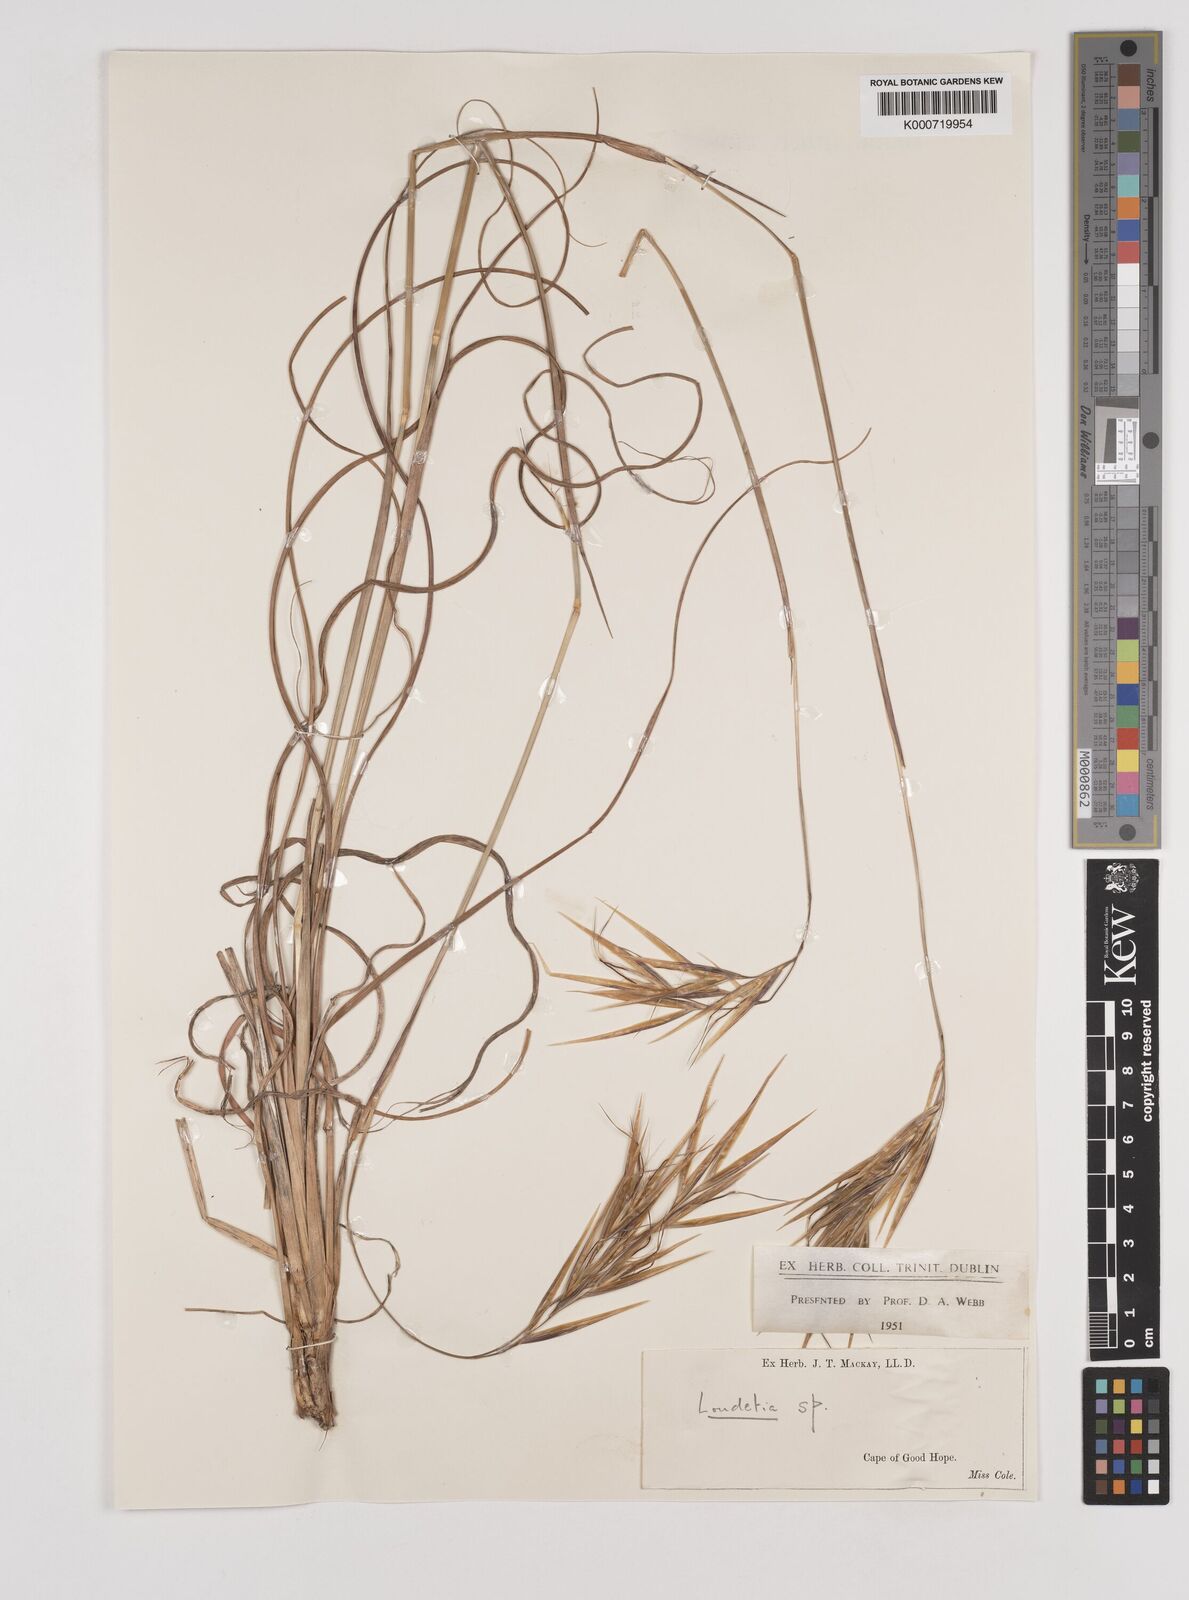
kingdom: Plantae
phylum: Tracheophyta
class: Liliopsida
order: Poales
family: Poaceae
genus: Pseudopentameris
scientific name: Pseudopentameris macrantha
